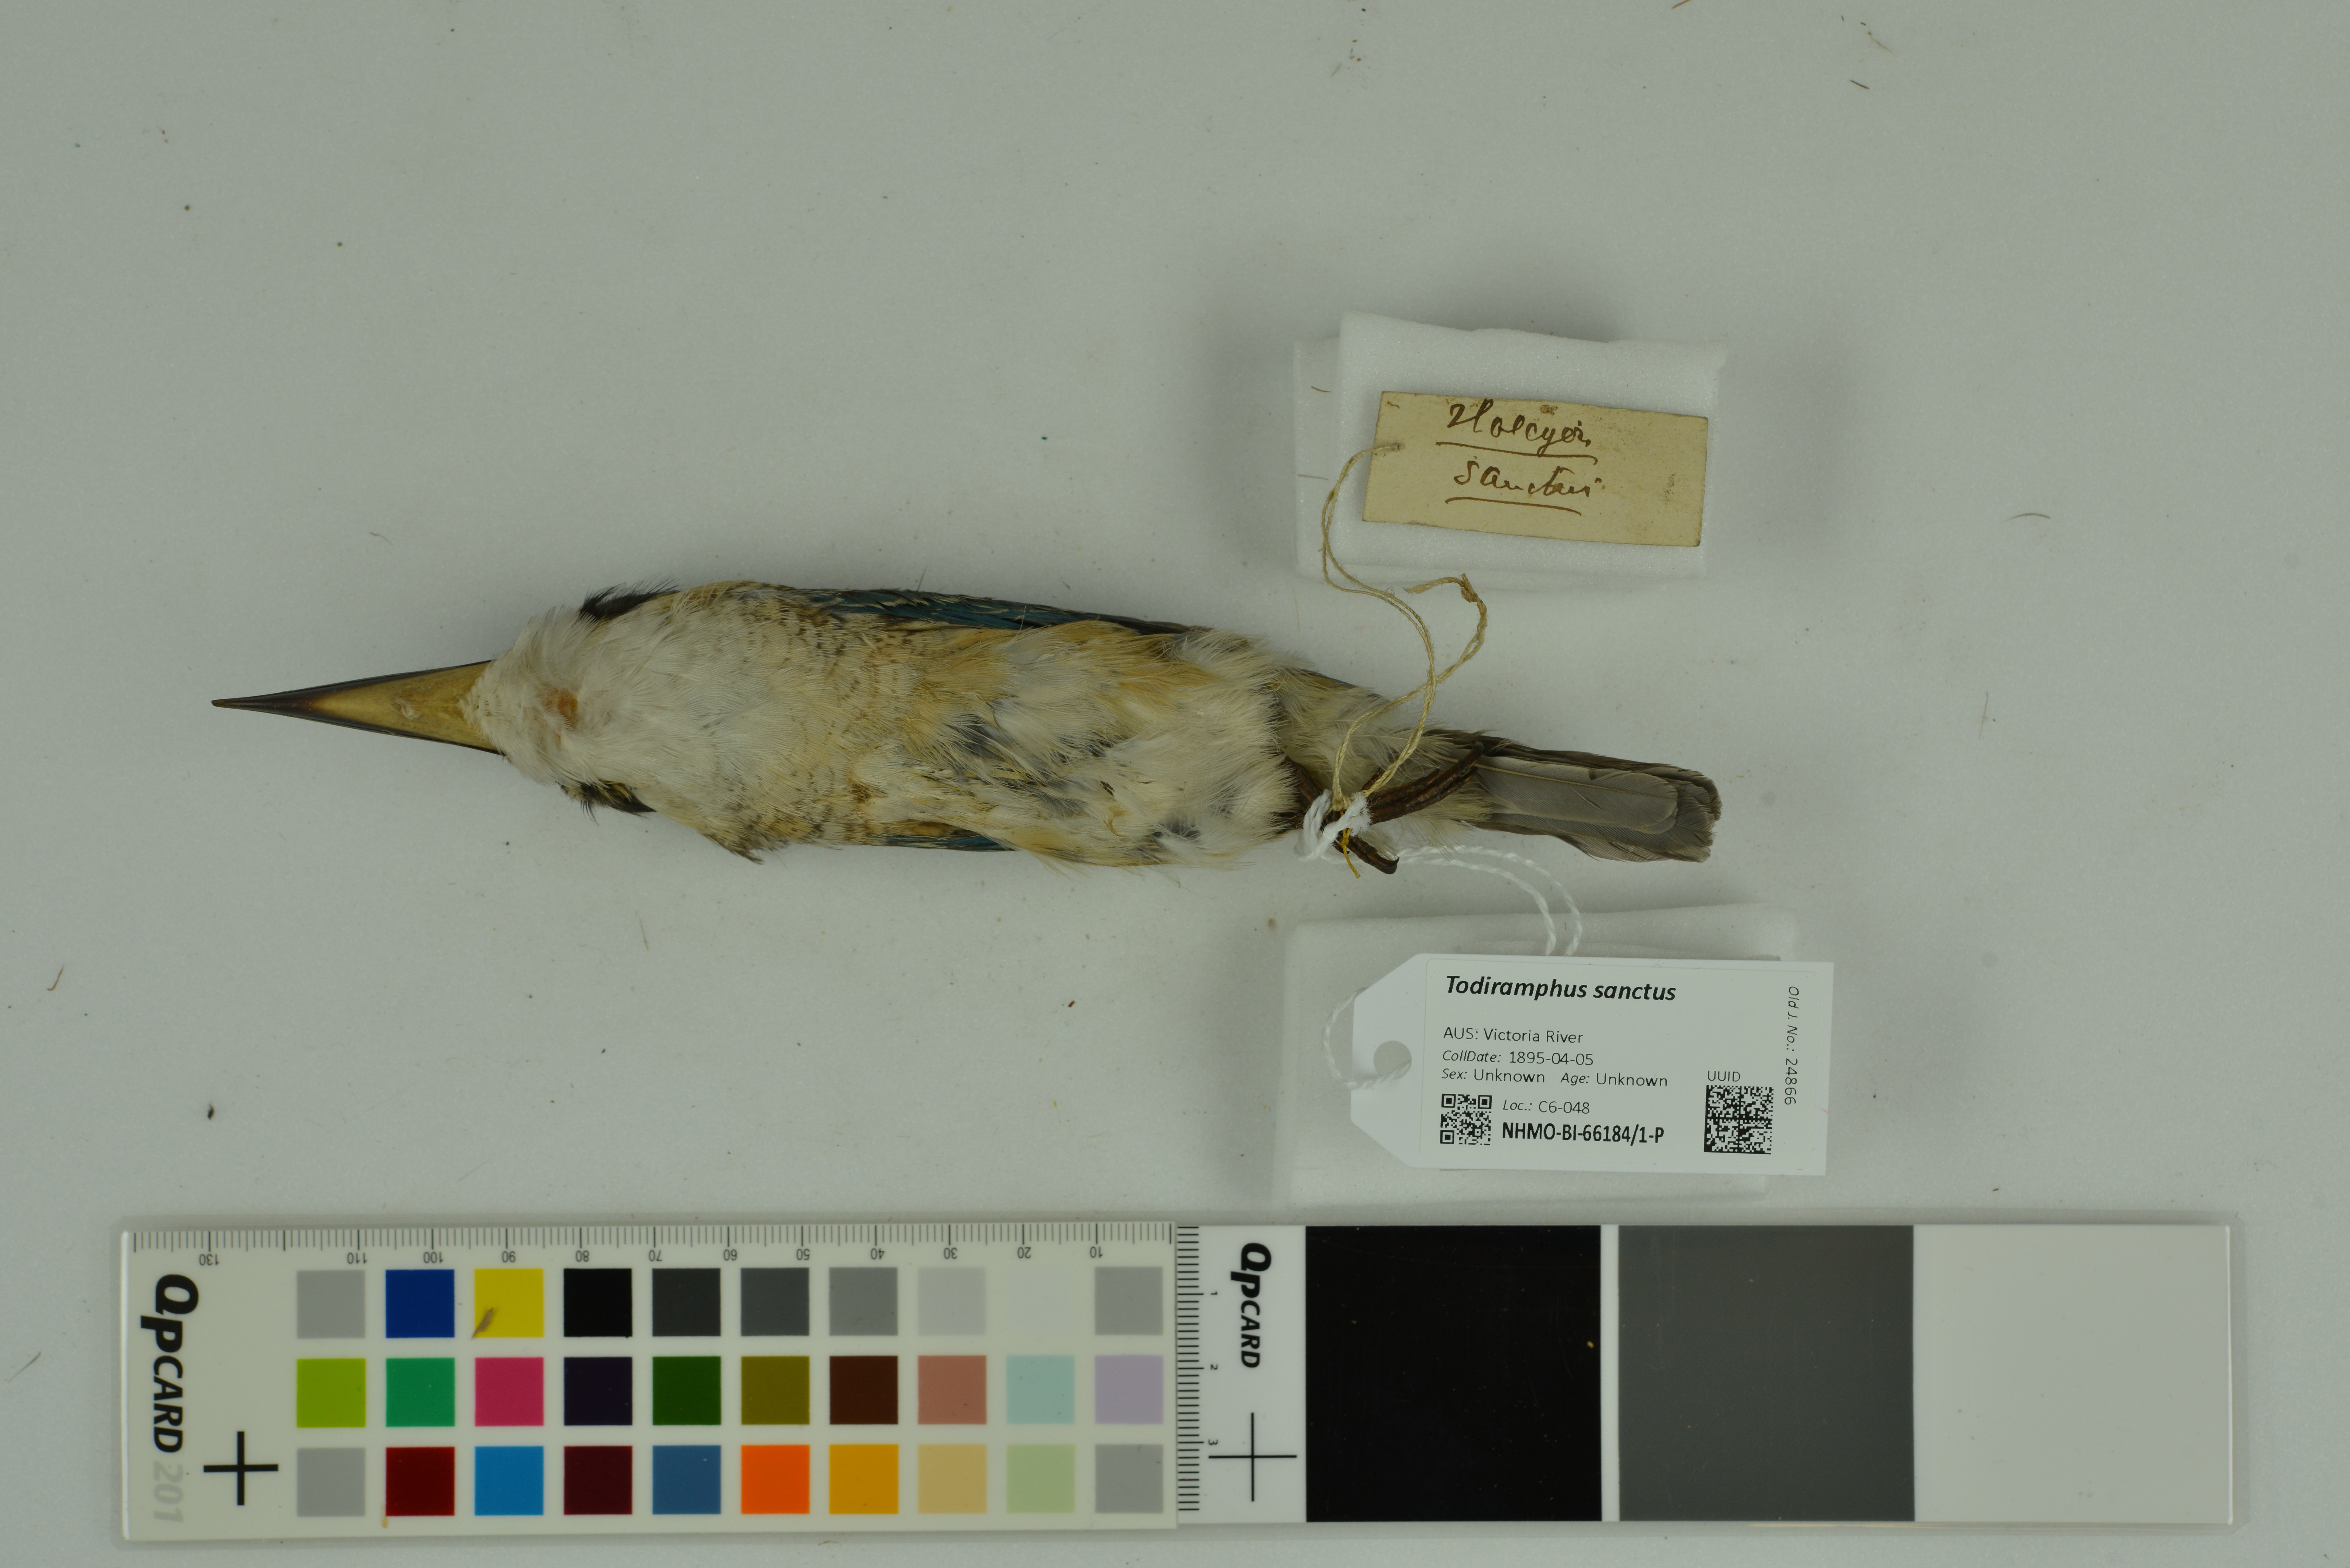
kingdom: Animalia
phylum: Chordata
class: Aves
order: Coraciiformes
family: Alcedinidae
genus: Todiramphus
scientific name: Todiramphus sanctus
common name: Sacred kingfisher
